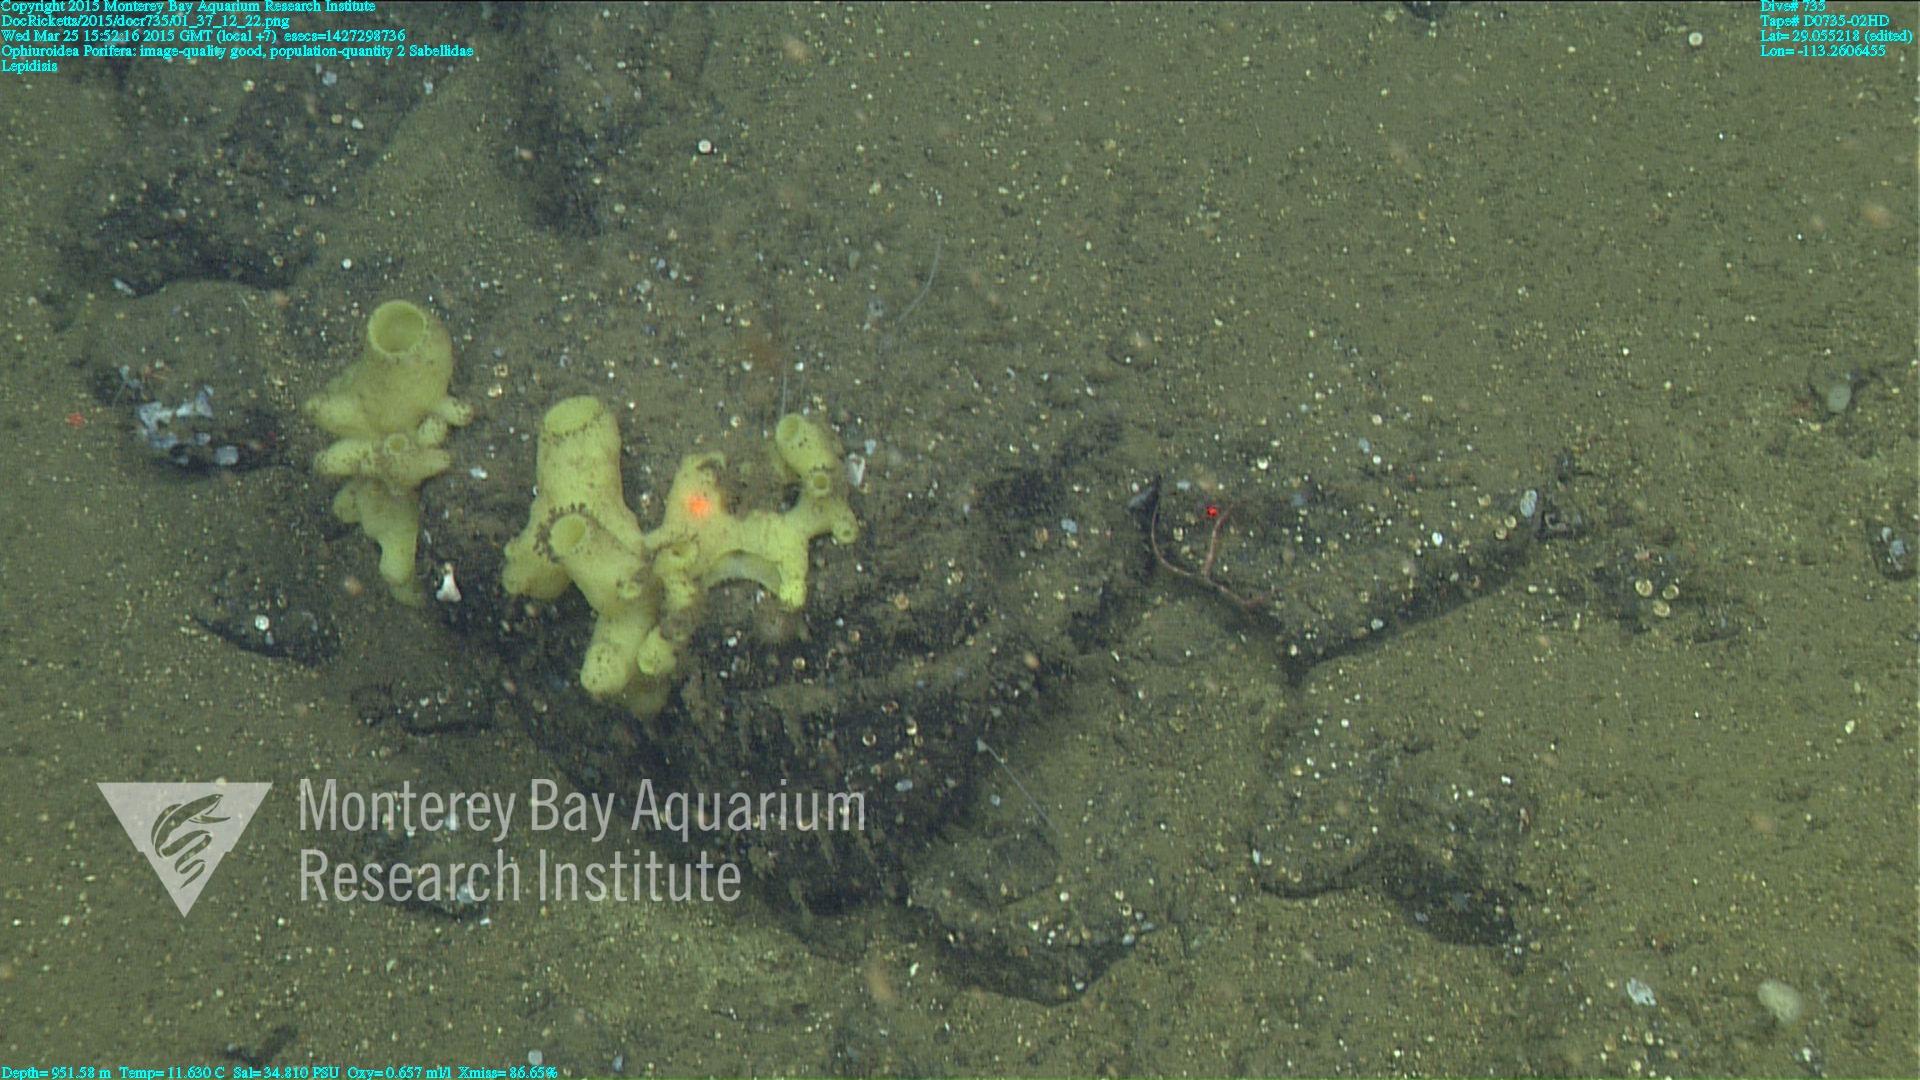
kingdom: Animalia
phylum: Cnidaria
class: Anthozoa
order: Scleralcyonacea
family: Keratoisididae
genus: Lepidisis
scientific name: Lepidisis
